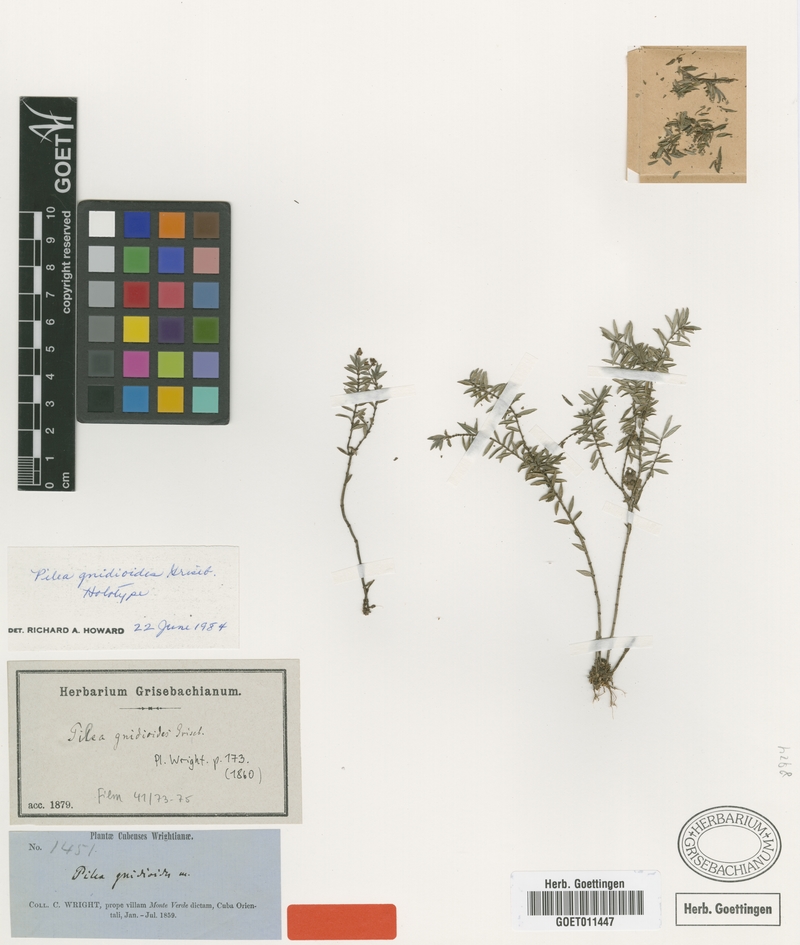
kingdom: Plantae
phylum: Tracheophyta
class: Magnoliopsida
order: Rosales
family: Urticaceae
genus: Pilea
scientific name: Pilea gnidioides
